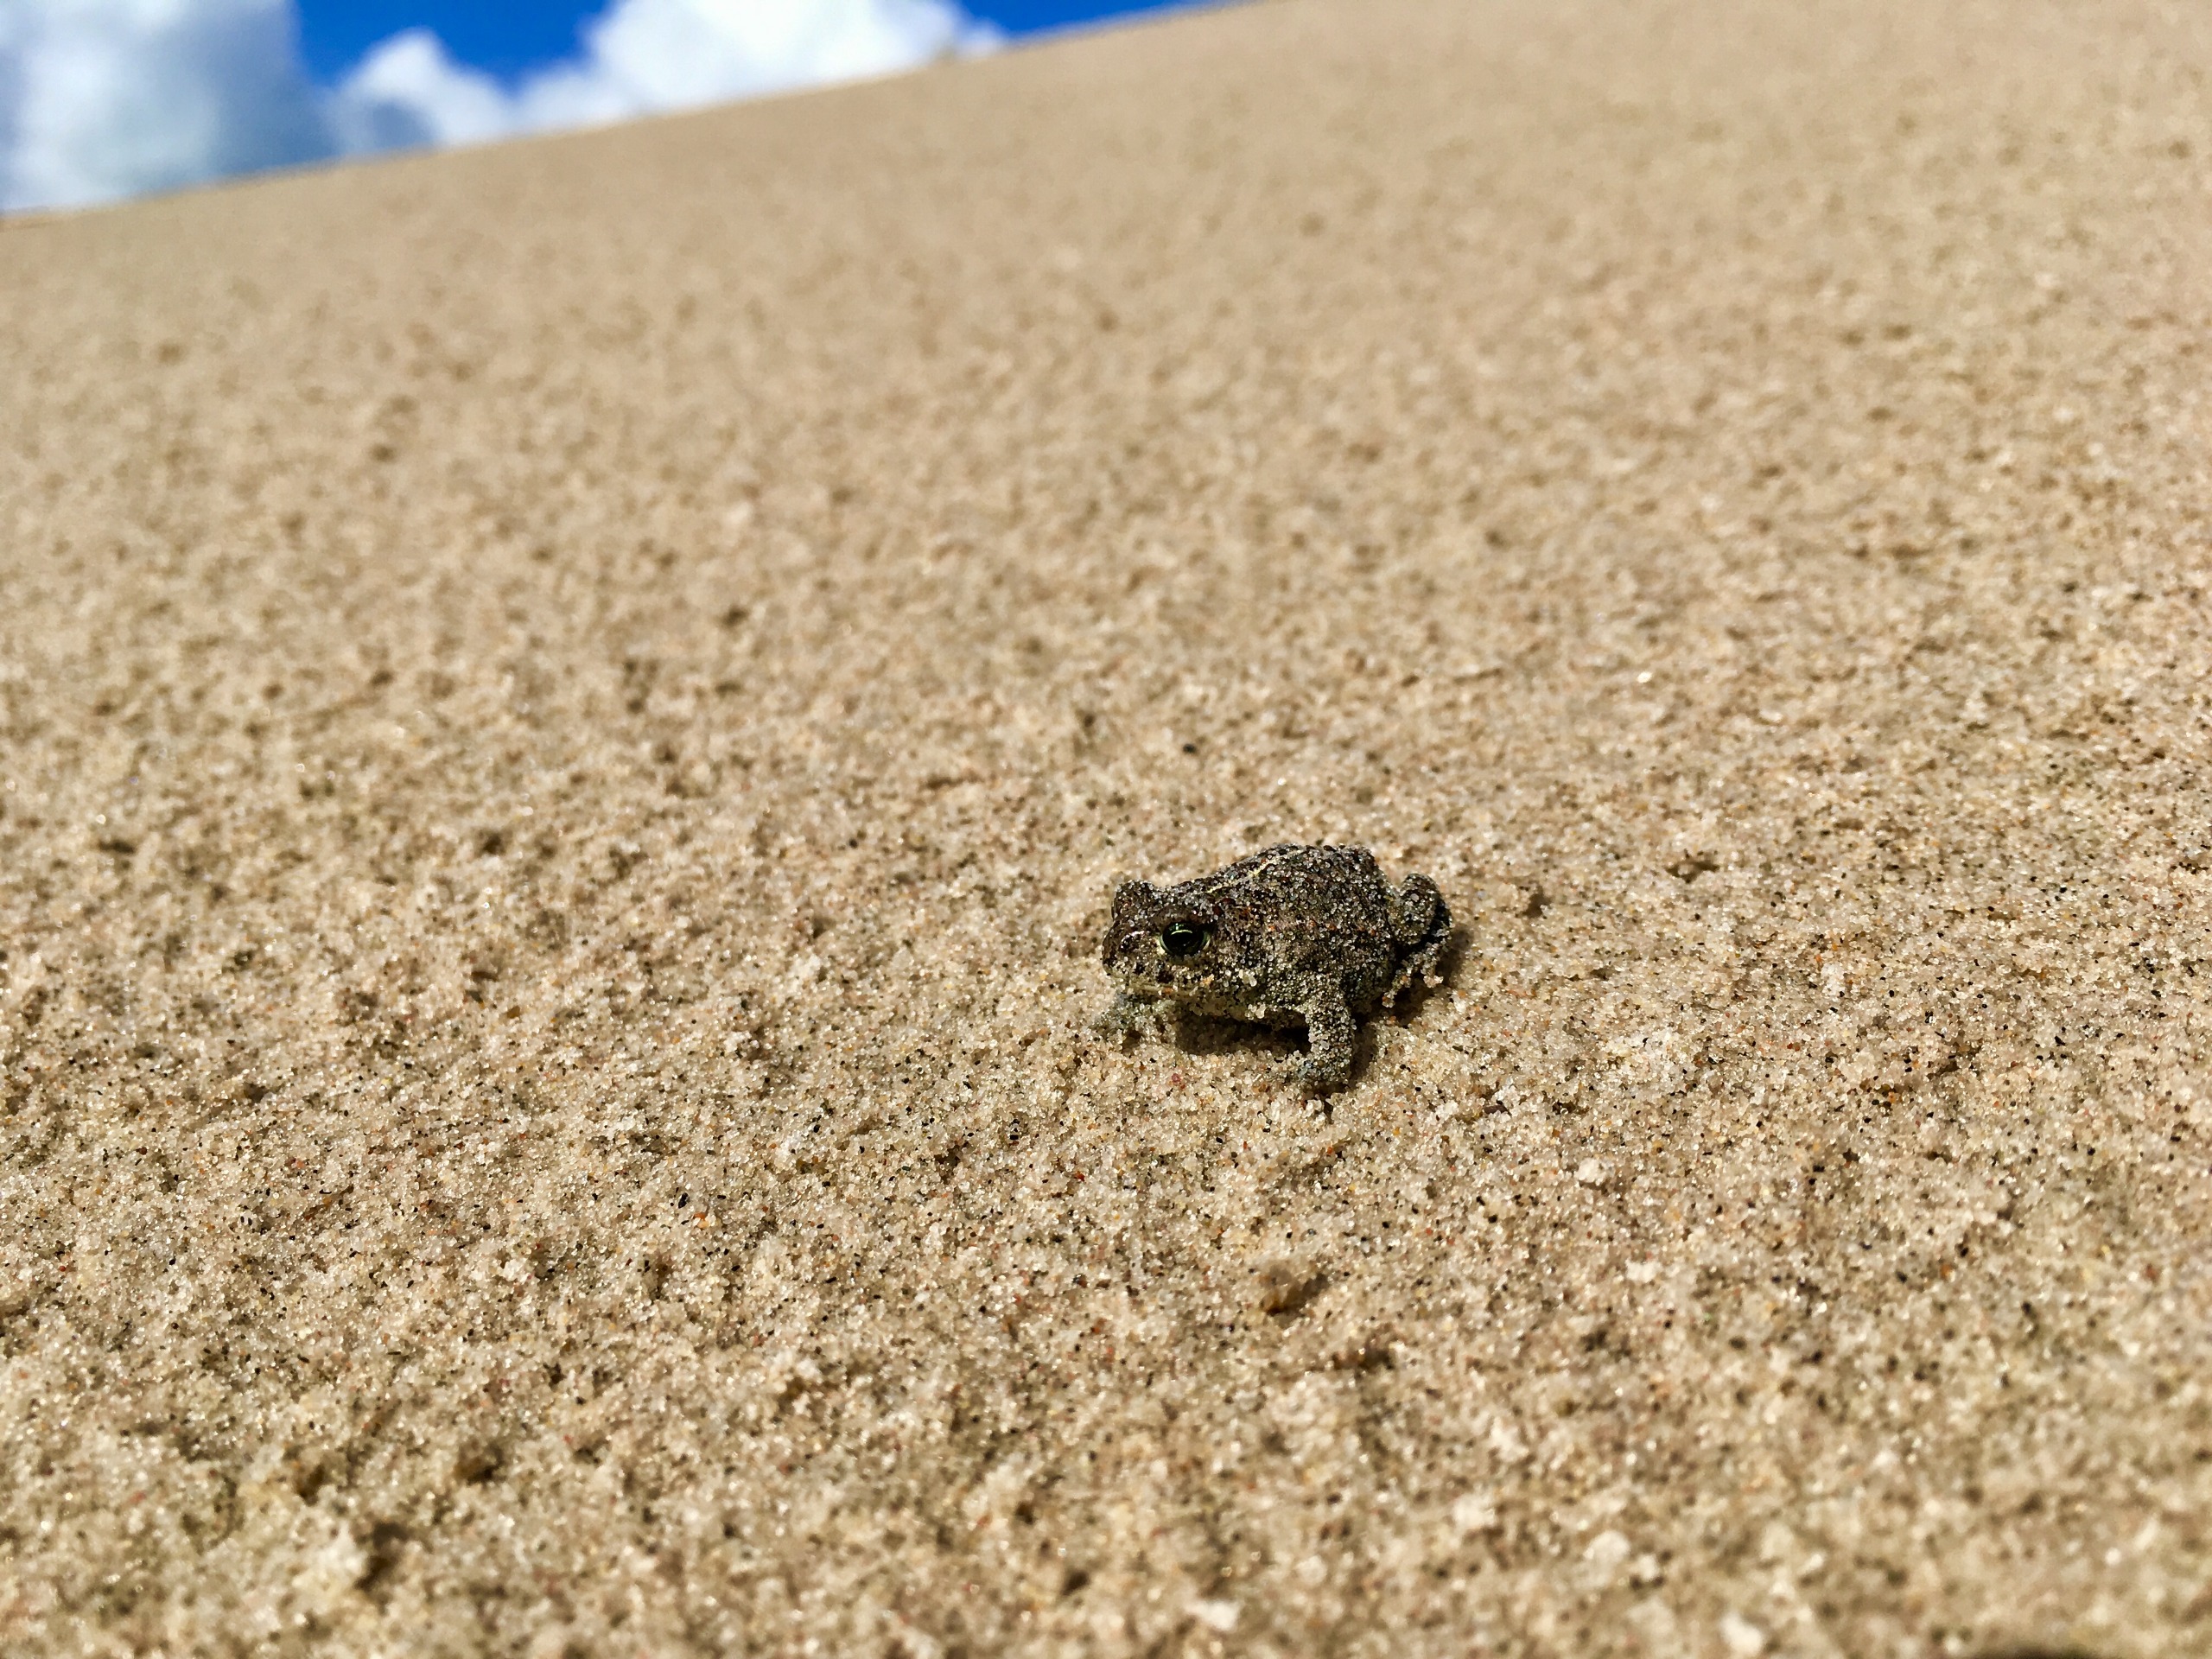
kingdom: Animalia
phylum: Chordata
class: Amphibia
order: Anura
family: Bufonidae
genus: Epidalea
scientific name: Epidalea calamita
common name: Strandtudse
